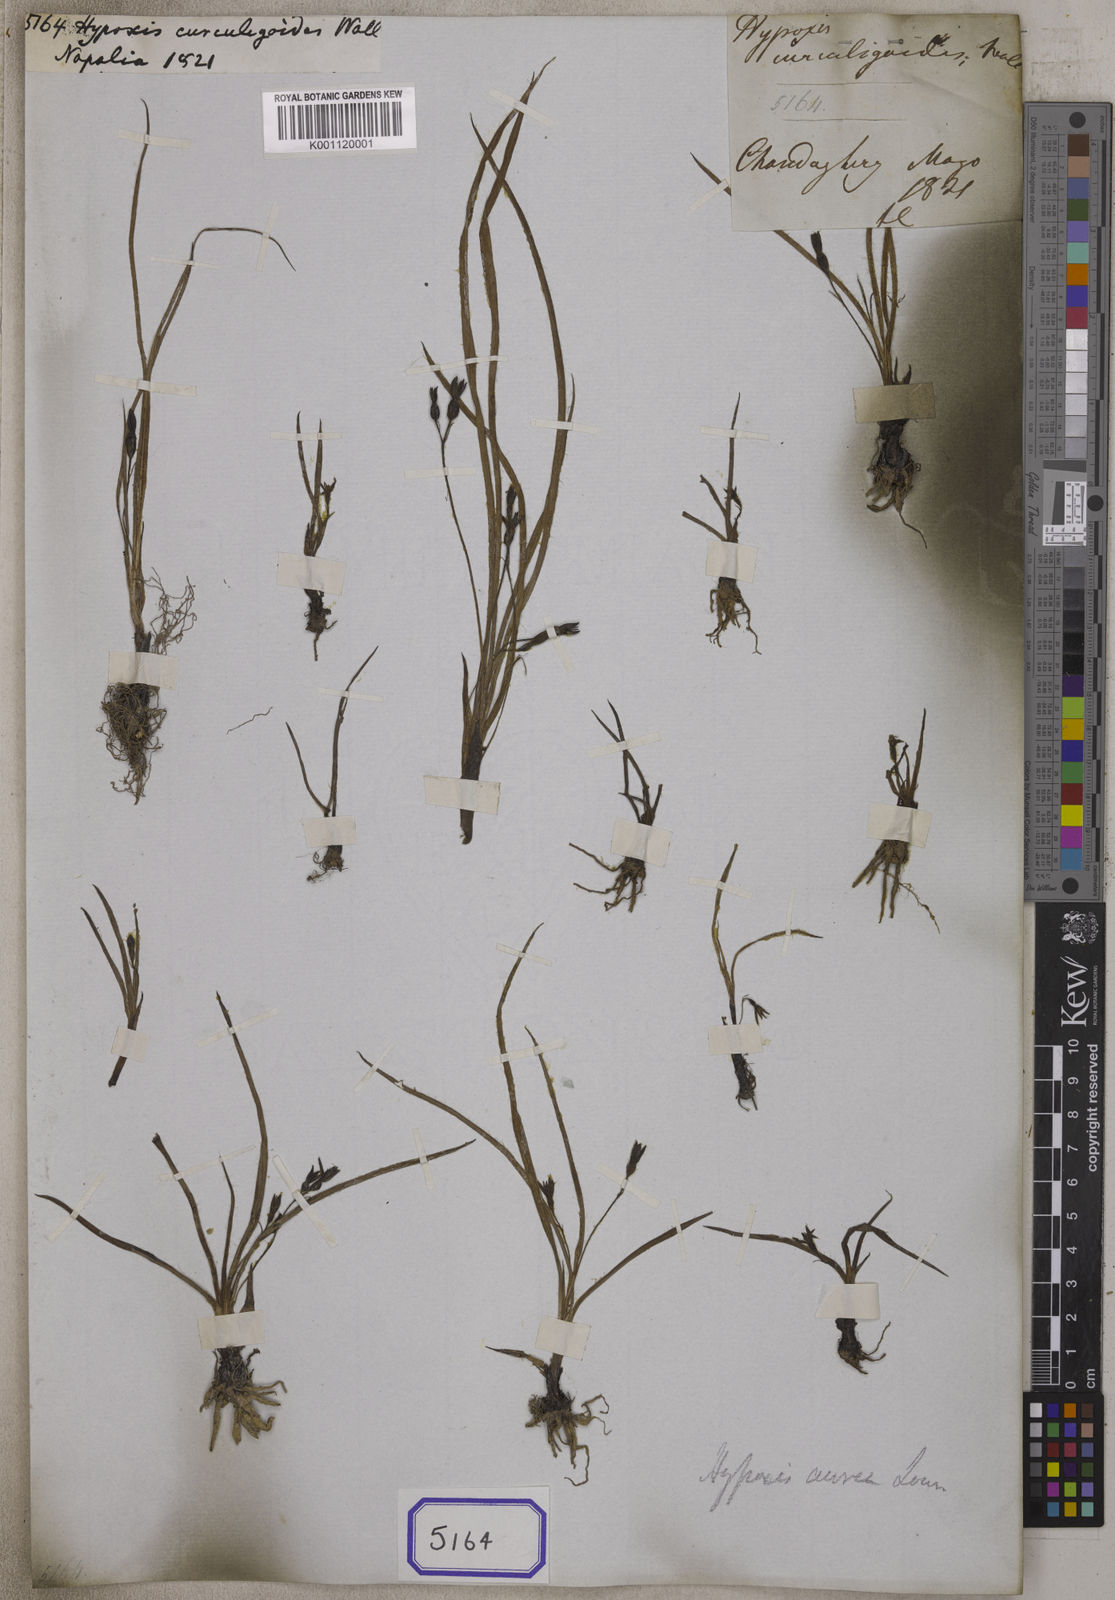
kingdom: Plantae
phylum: Tracheophyta
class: Liliopsida
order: Asparagales
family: Hypoxidaceae
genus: Hypoxis
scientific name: Hypoxis
